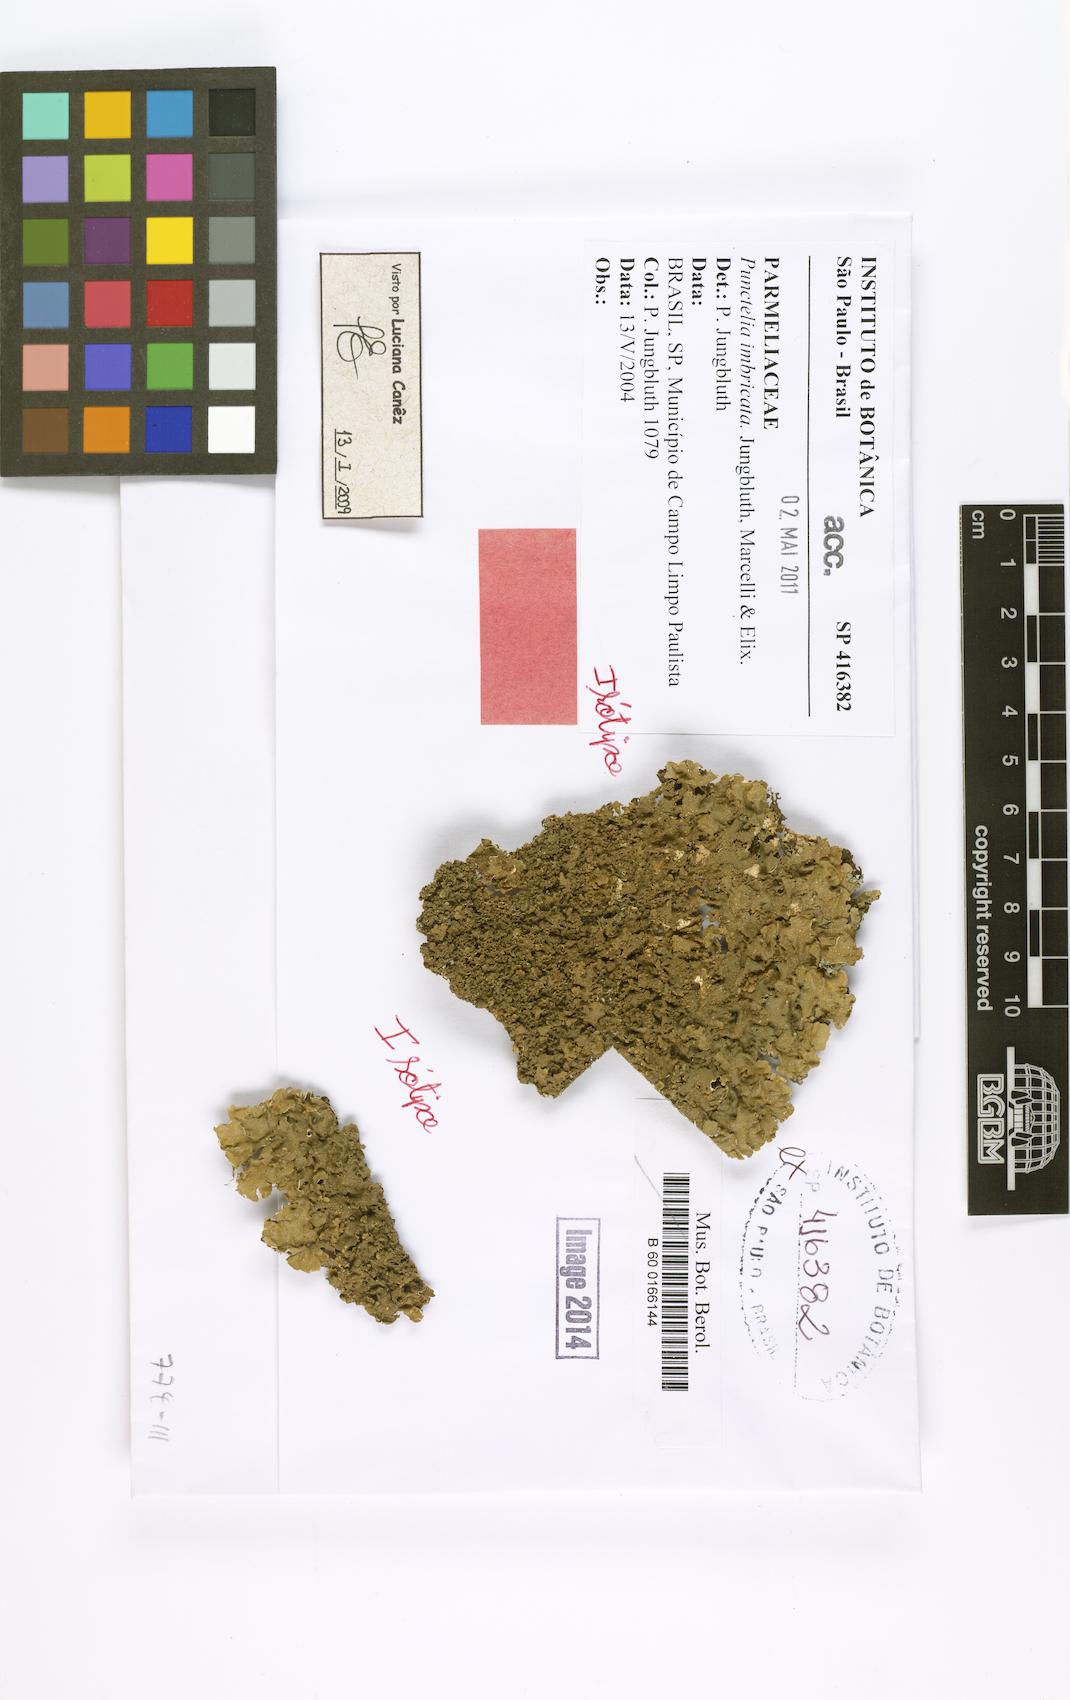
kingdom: Fungi
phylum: Ascomycota
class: Lecanoromycetes
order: Lecanorales
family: Parmeliaceae
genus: Punctelia
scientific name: Punctelia imbricata
